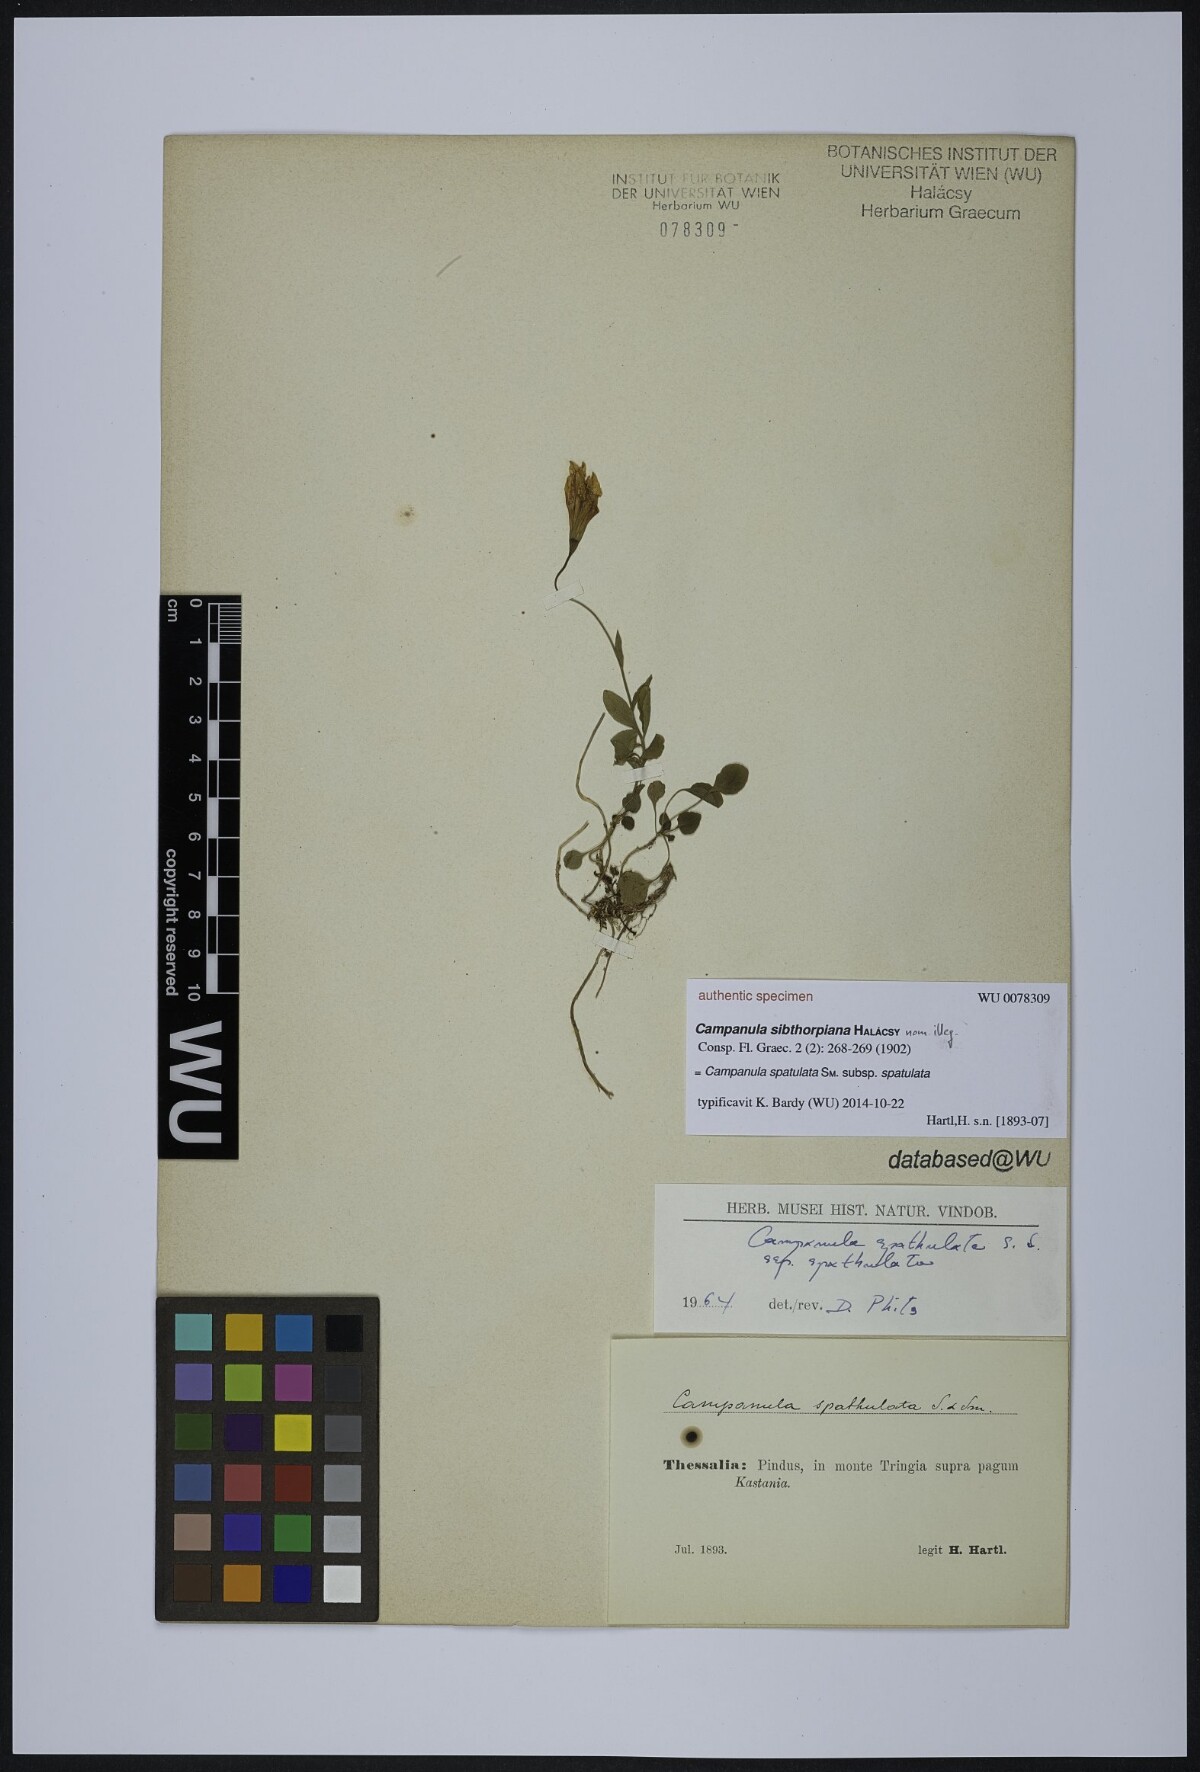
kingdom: Plantae
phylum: Tracheophyta
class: Magnoliopsida
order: Asterales
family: Campanulaceae
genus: Campanula
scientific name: Campanula spatulata
